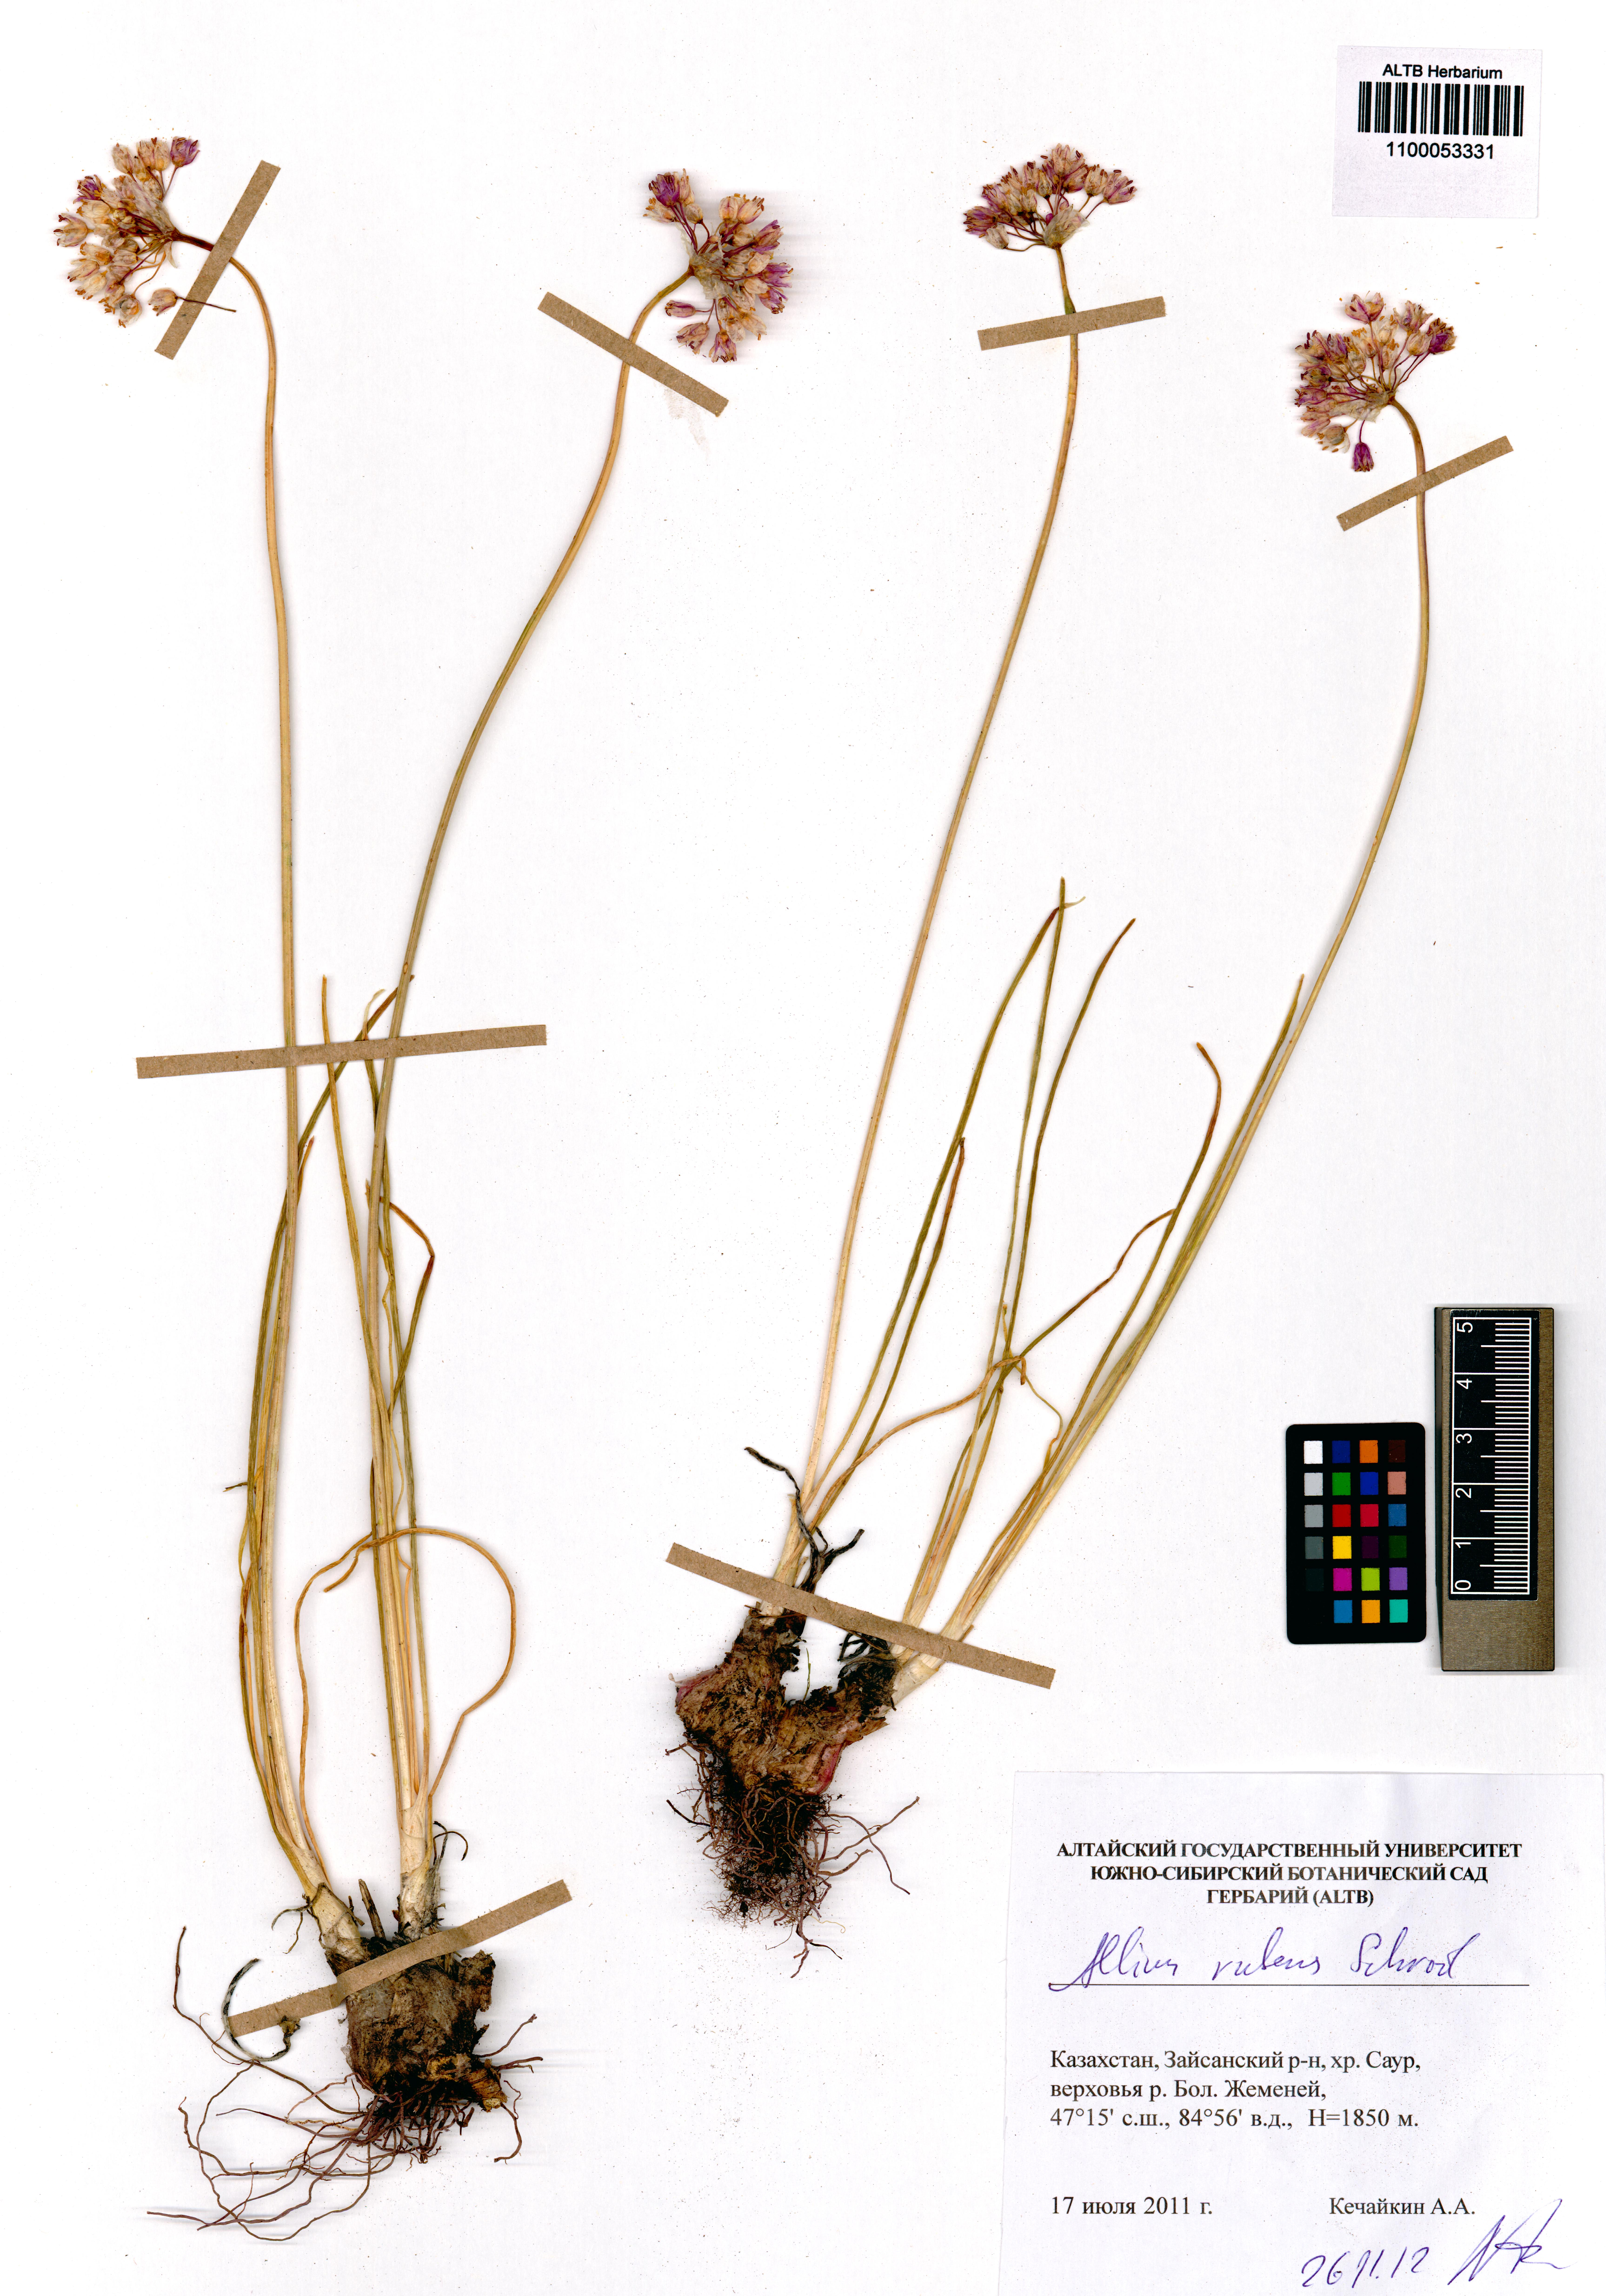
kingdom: Plantae
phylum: Tracheophyta
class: Liliopsida
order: Asparagales
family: Amaryllidaceae
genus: Allium
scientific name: Allium rubens
